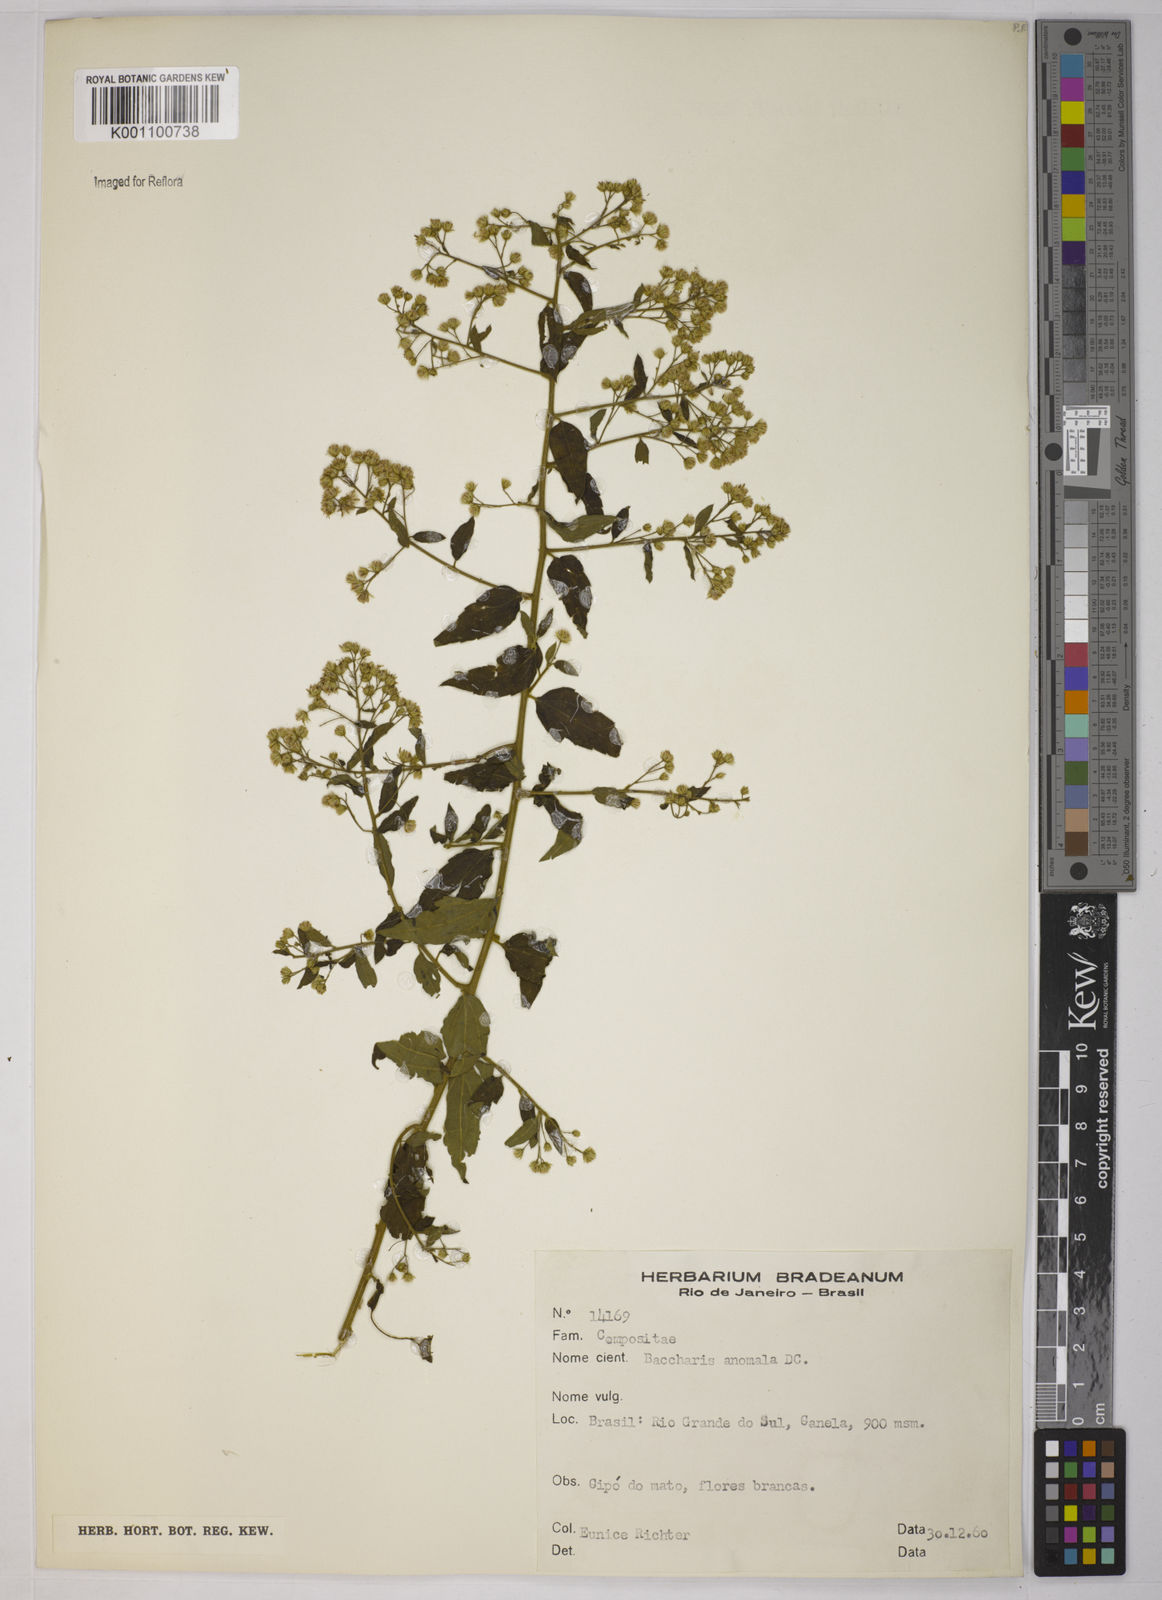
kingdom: Plantae
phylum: Tracheophyta
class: Magnoliopsida
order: Asterales
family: Asteraceae
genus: Baccharis
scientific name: Baccharis anomala
